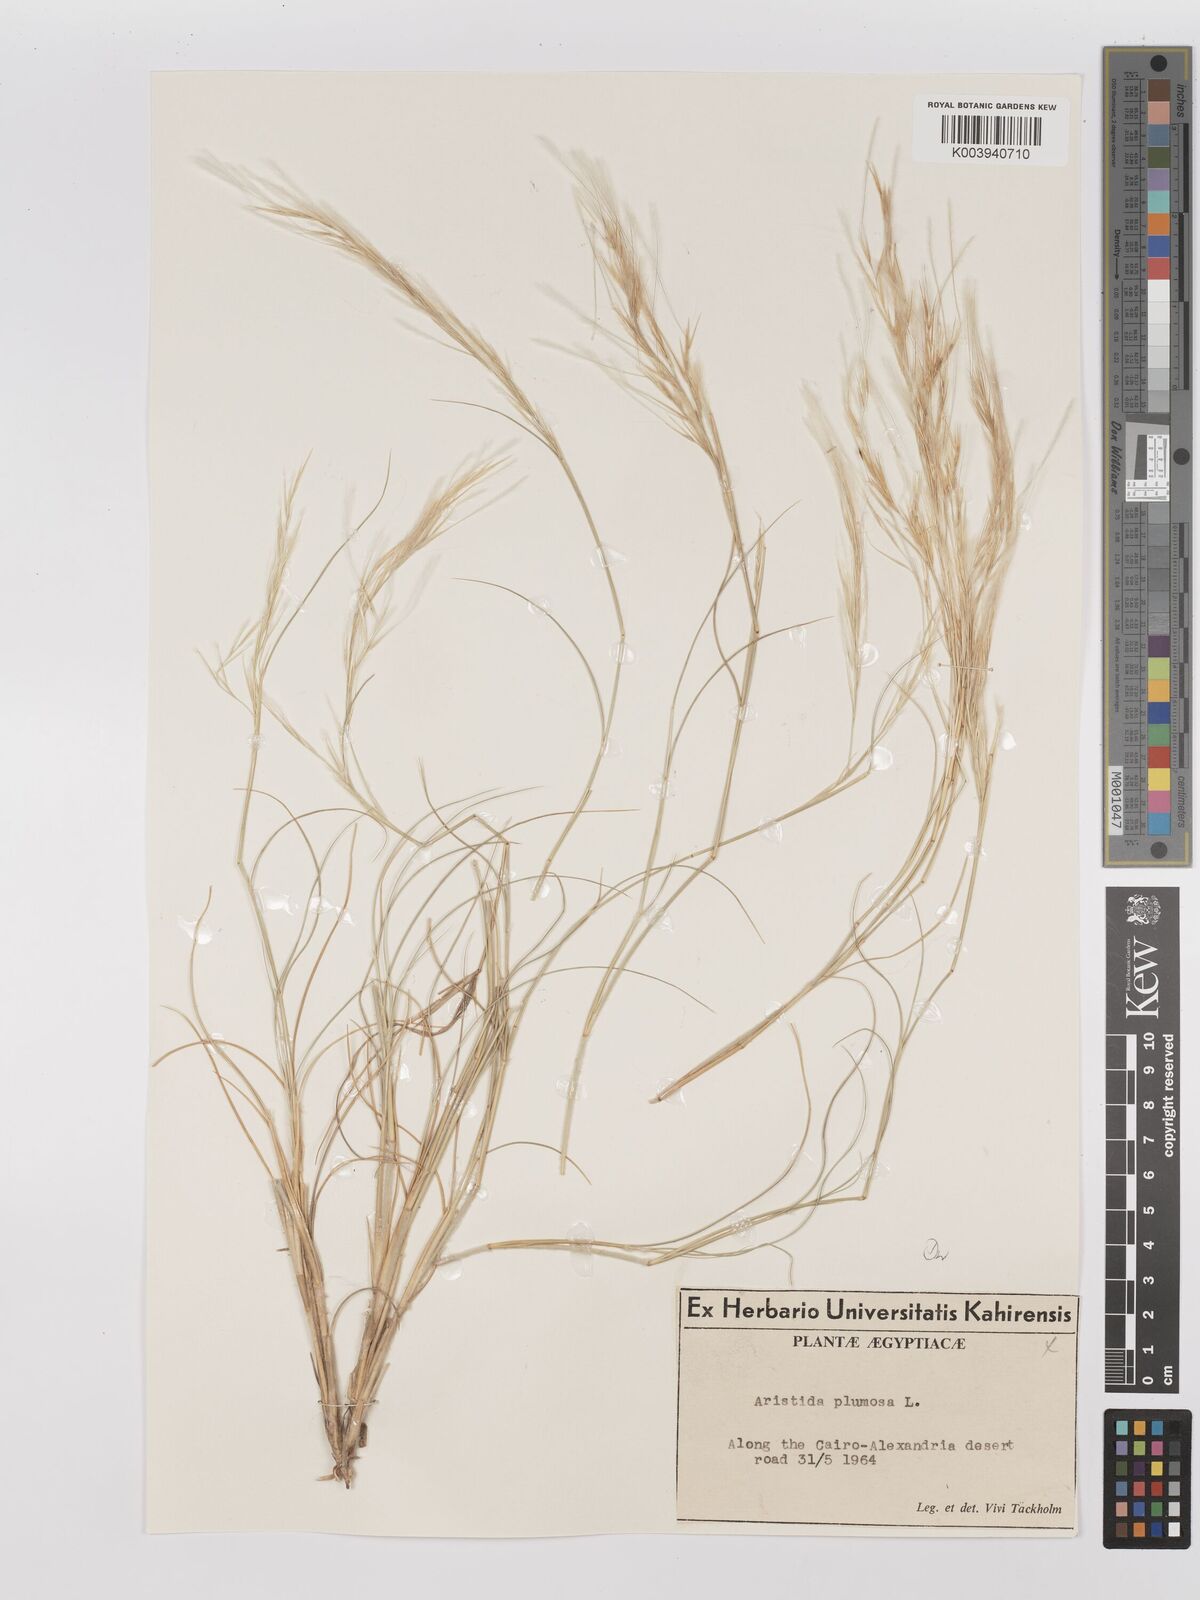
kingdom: Plantae
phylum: Tracheophyta
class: Liliopsida
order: Poales
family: Poaceae
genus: Stipagrostis
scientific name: Stipagrostis plumosa
